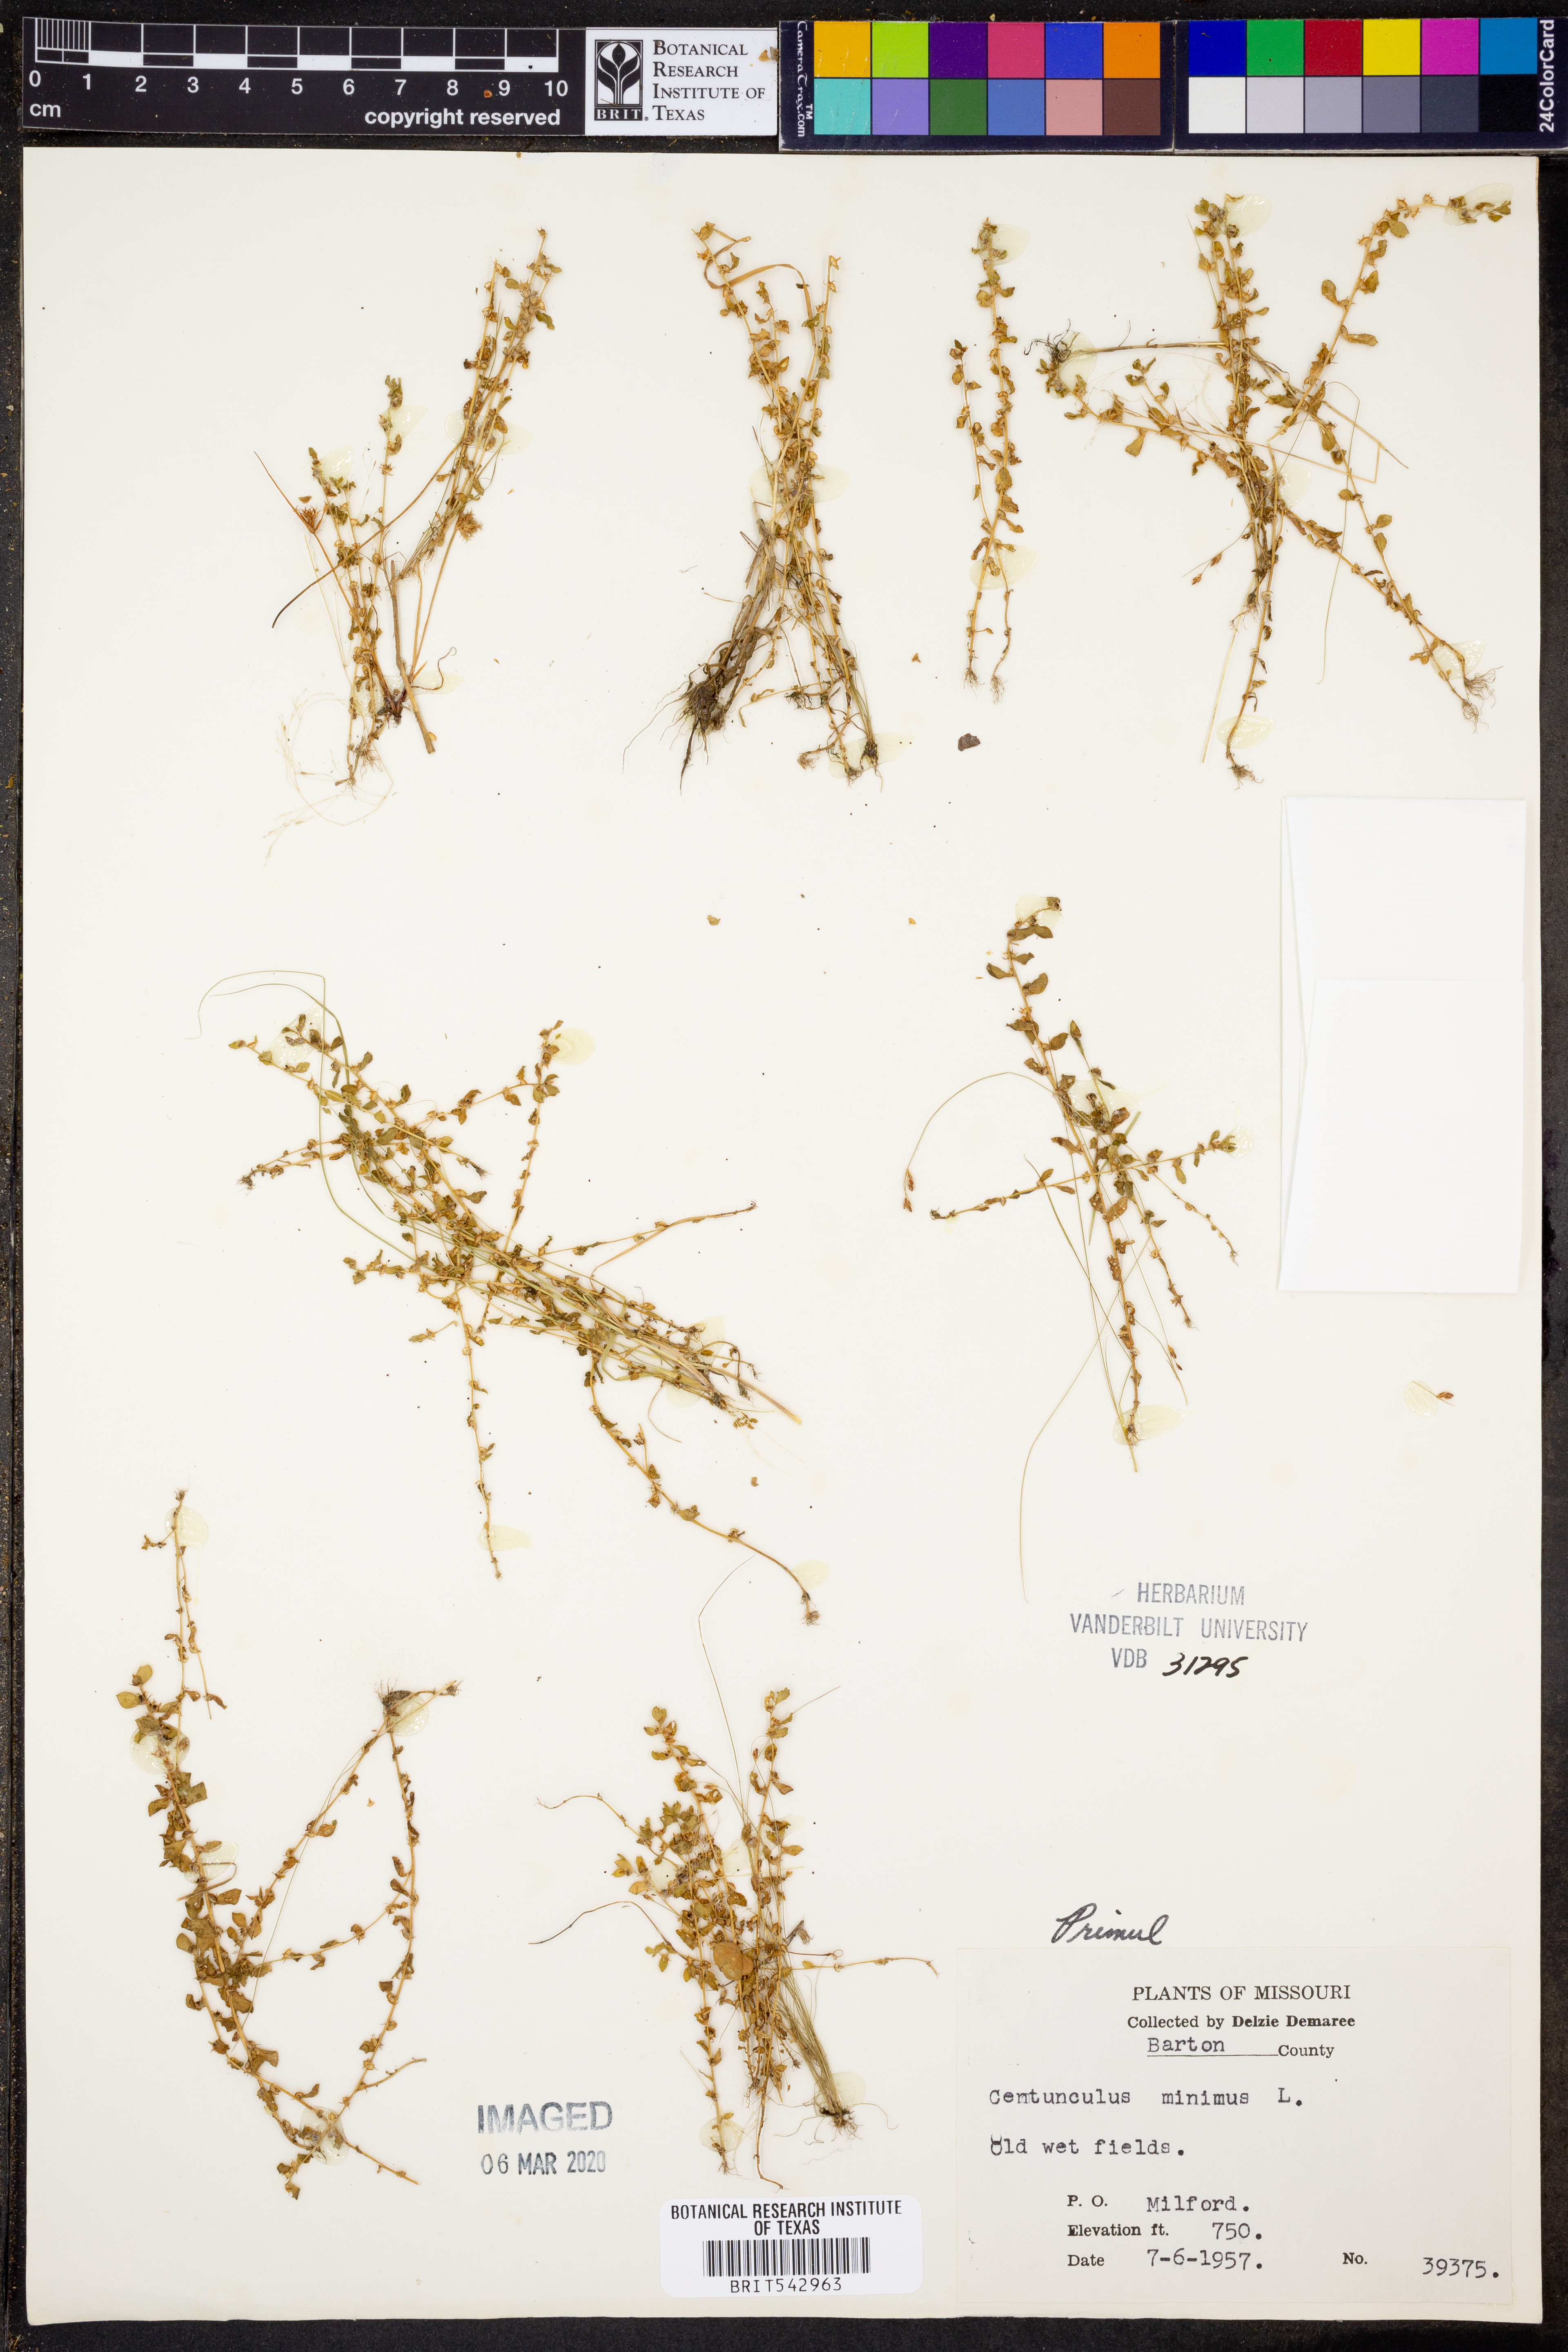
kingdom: Plantae
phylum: Tracheophyta
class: Magnoliopsida
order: Ericales
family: Primulaceae
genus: Lysimachia
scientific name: Lysimachia minima
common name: Chaffweed
